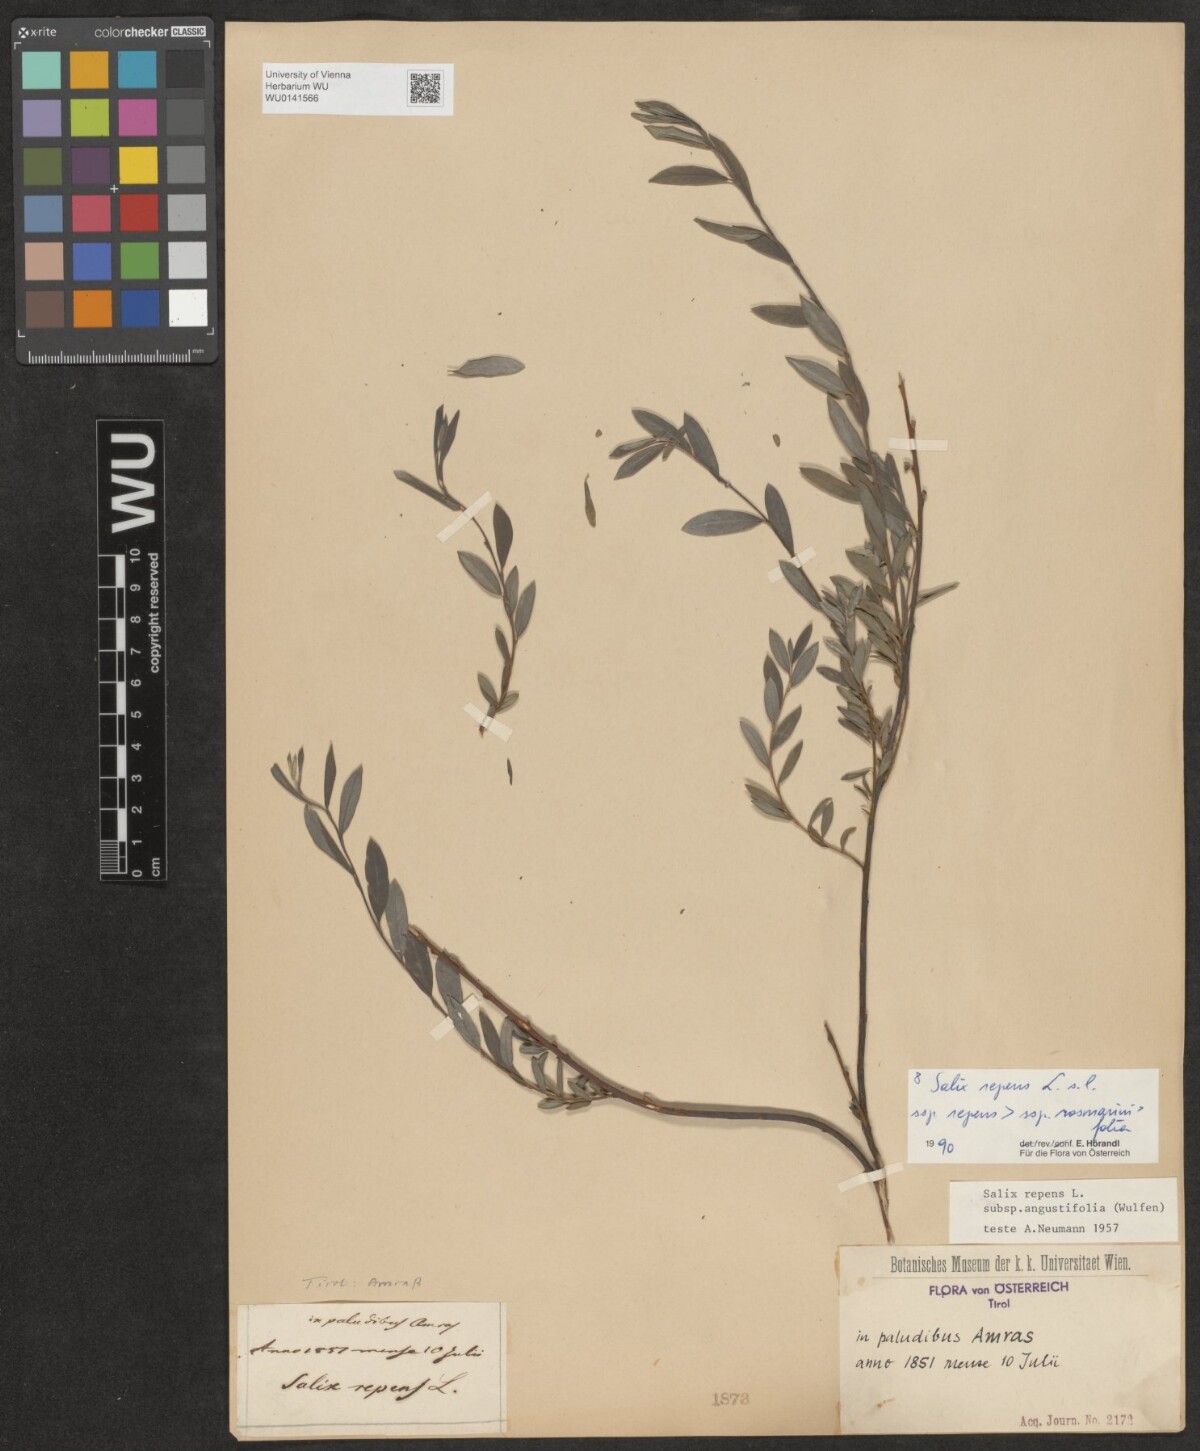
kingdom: Plantae
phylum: Tracheophyta
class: Magnoliopsida
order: Malpighiales
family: Salicaceae
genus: Salix
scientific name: Salix repens
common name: Creeping willow
